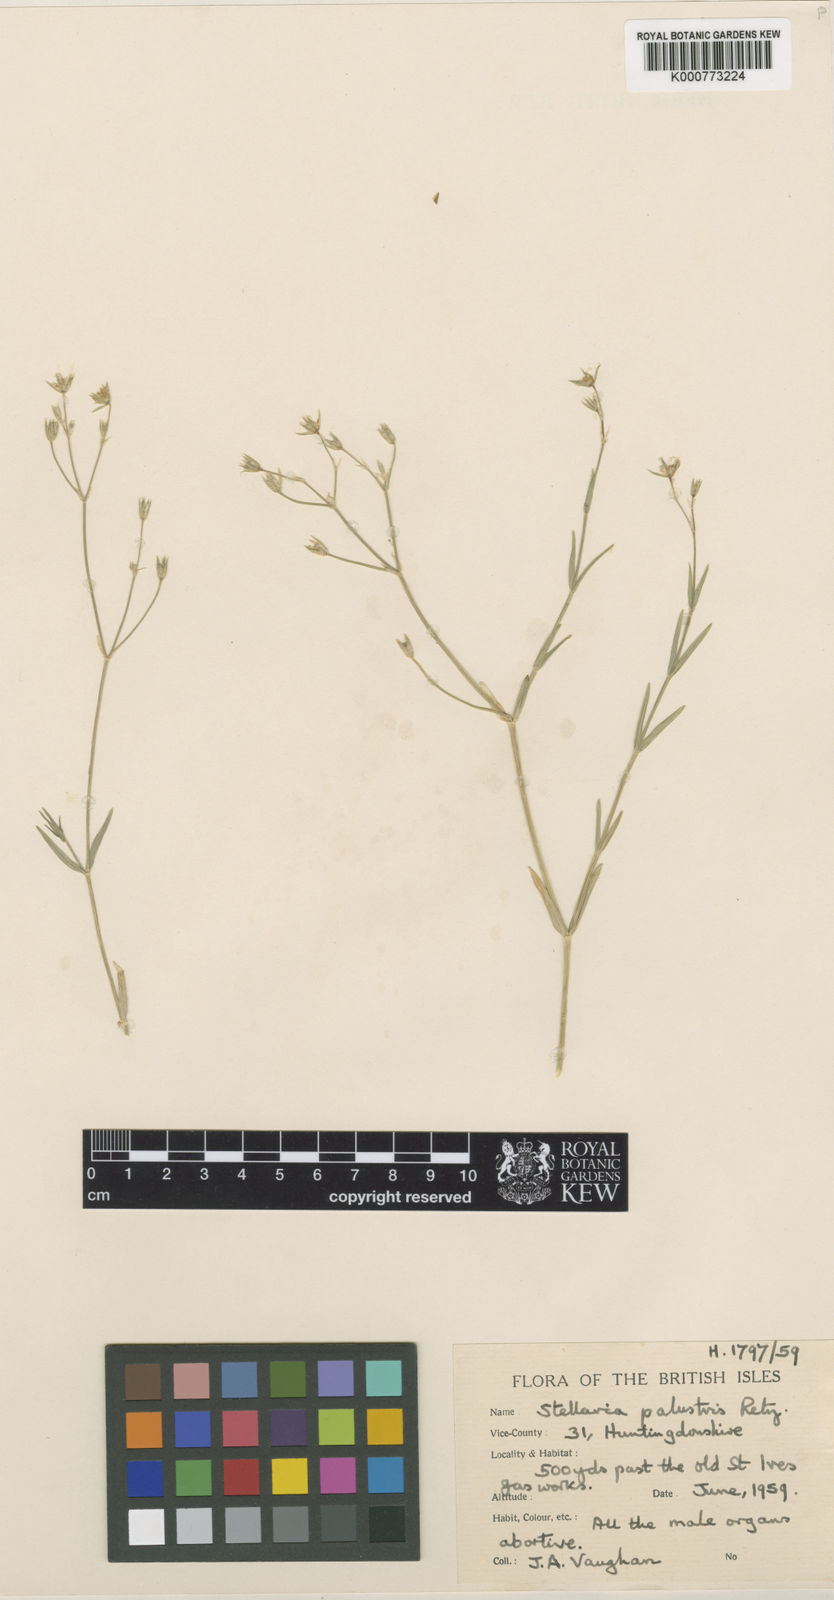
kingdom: Plantae
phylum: Tracheophyta
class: Magnoliopsida
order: Caryophyllales
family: Caryophyllaceae
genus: Stellaria
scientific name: Stellaria
